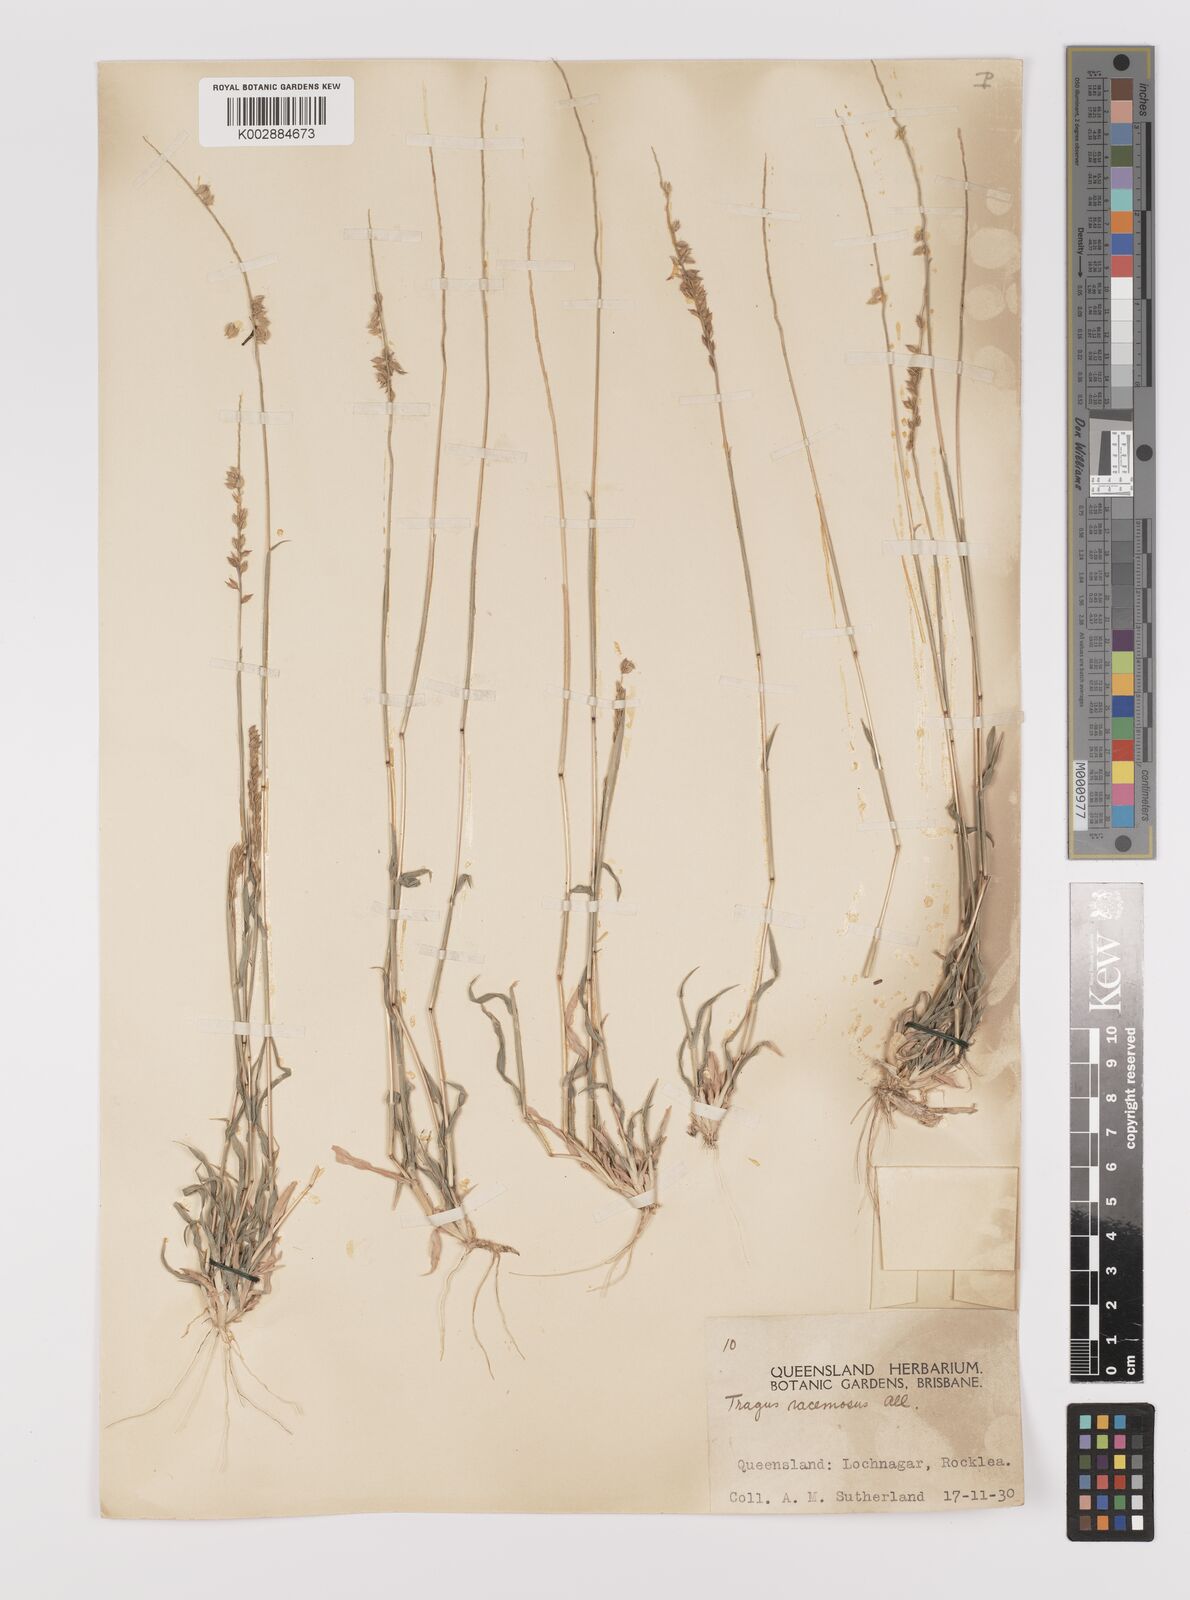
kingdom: Plantae
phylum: Tracheophyta
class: Liliopsida
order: Poales
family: Poaceae
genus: Tragus
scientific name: Tragus australianus
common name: Australian bur-grass
